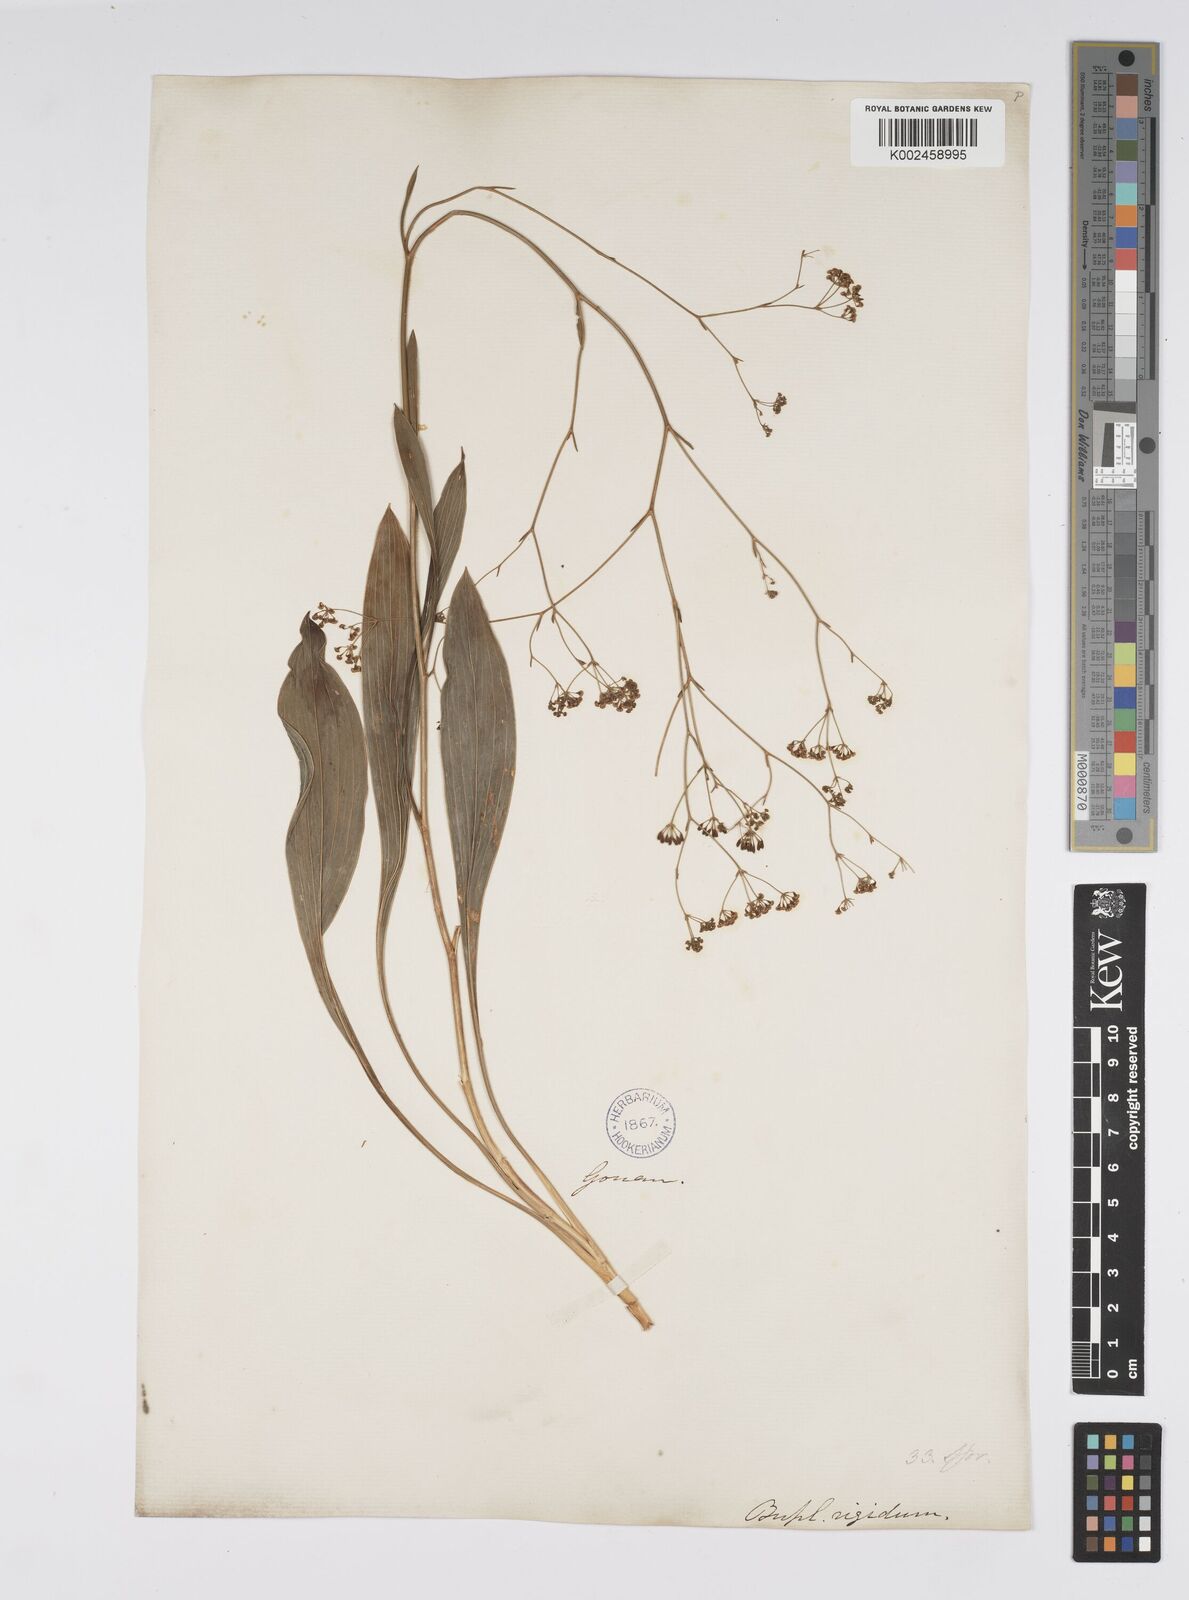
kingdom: Plantae
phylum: Tracheophyta
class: Magnoliopsida
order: Apiales
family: Apiaceae
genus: Bupleurum
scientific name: Bupleurum rigidum
